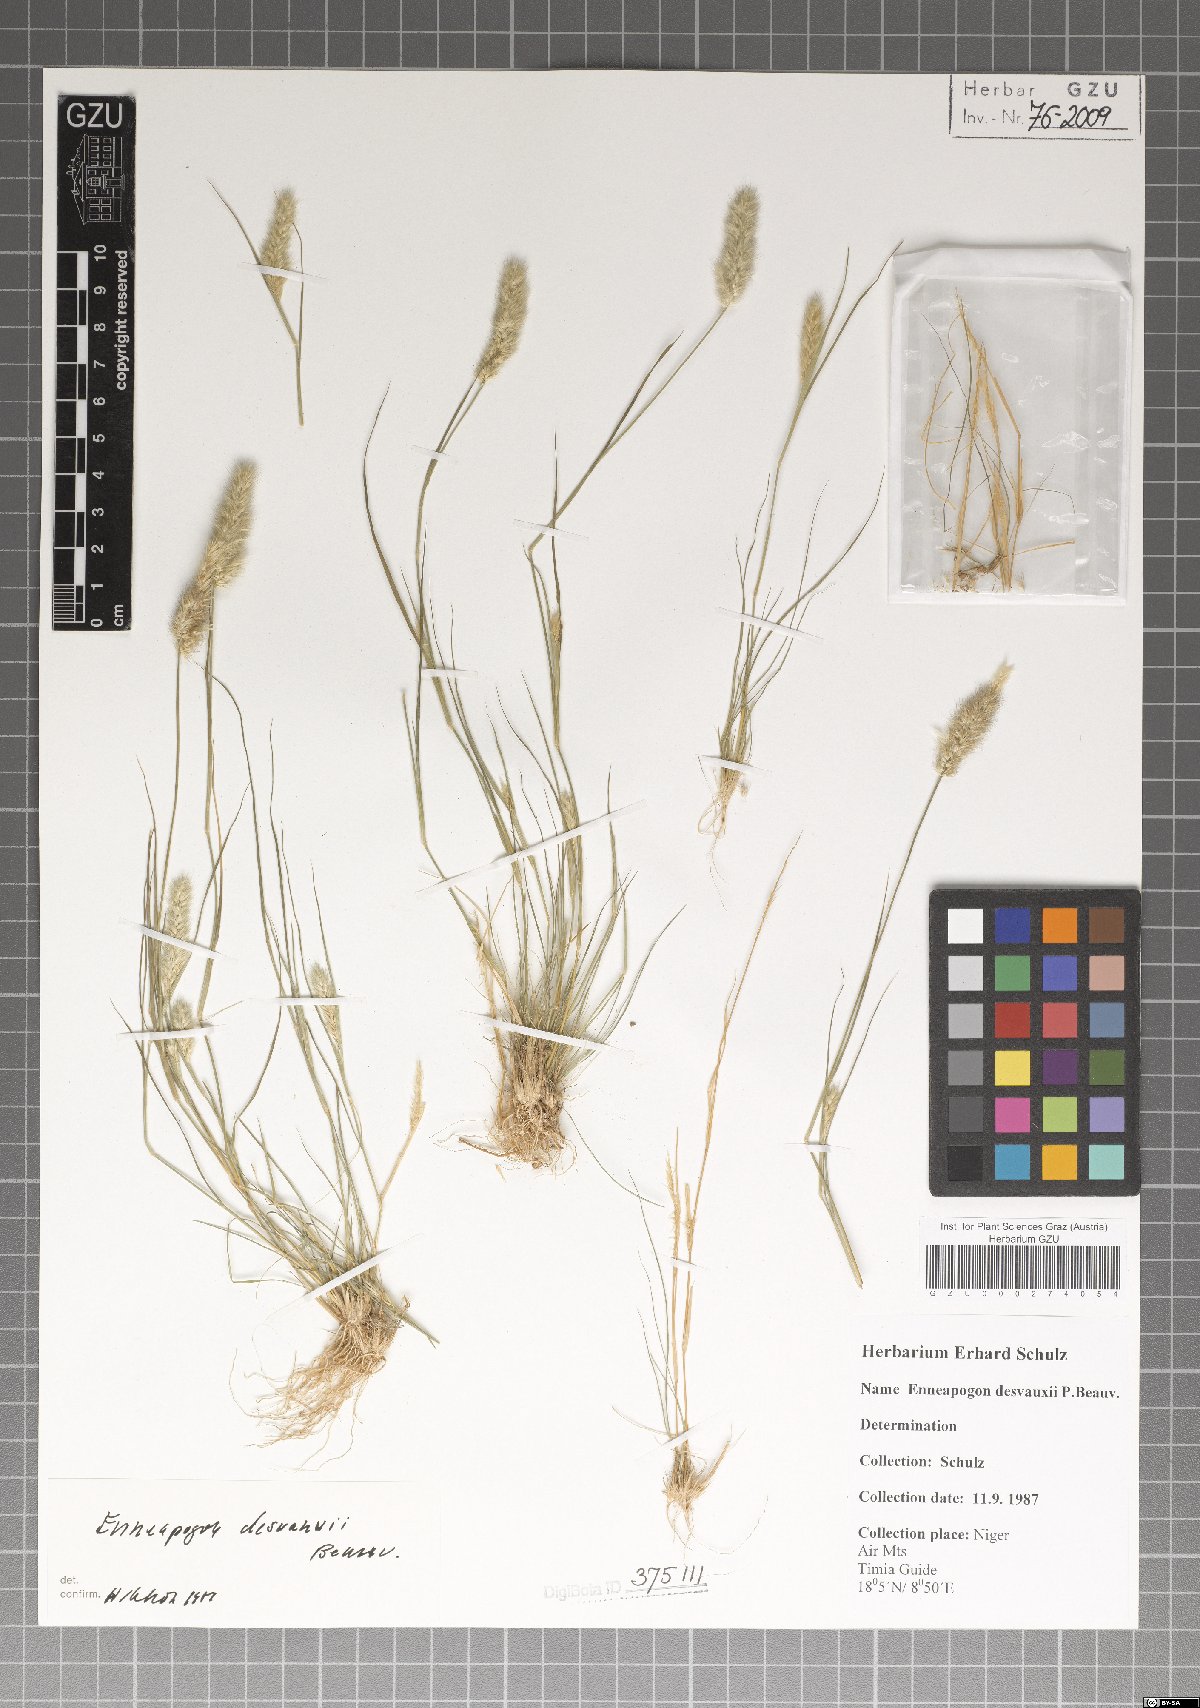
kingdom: Plantae
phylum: Tracheophyta
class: Liliopsida
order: Poales
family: Poaceae
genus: Enneapogon
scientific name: Enneapogon desvauxii
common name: Feather pappus grass
